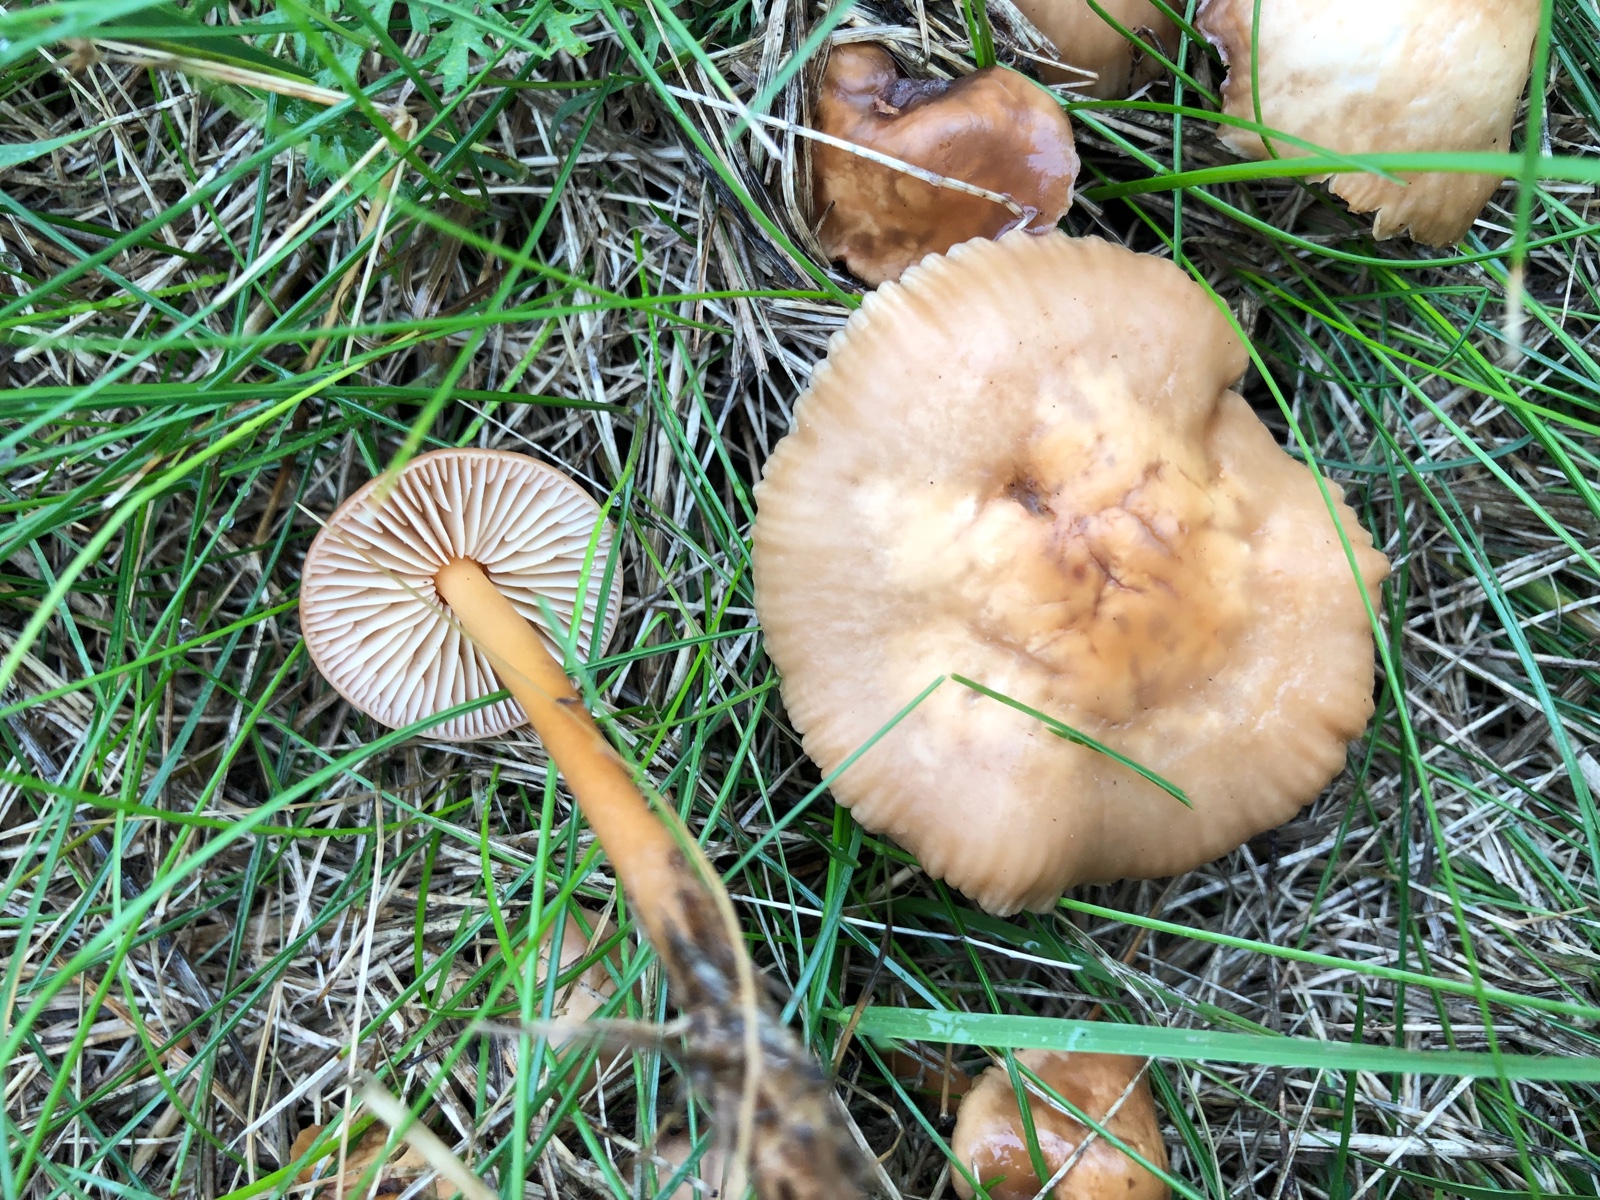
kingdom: Fungi
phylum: Basidiomycota
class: Agaricomycetes
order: Agaricales
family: Marasmiaceae
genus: Marasmius
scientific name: Marasmius oreades
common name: elledans-bruskhat
